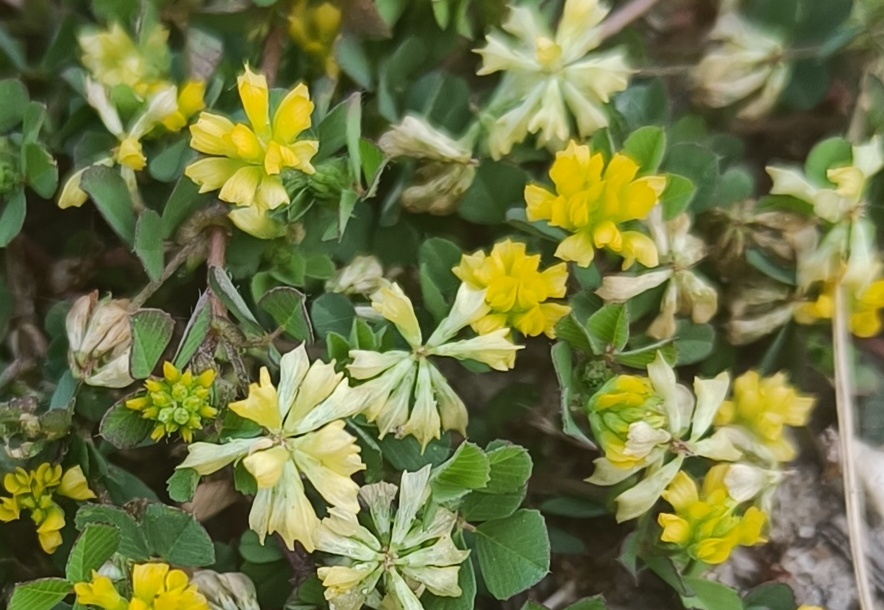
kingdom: Plantae
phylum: Tracheophyta
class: Magnoliopsida
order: Fabales
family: Fabaceae
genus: Trifolium
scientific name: Trifolium dubium
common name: Fin kløver
